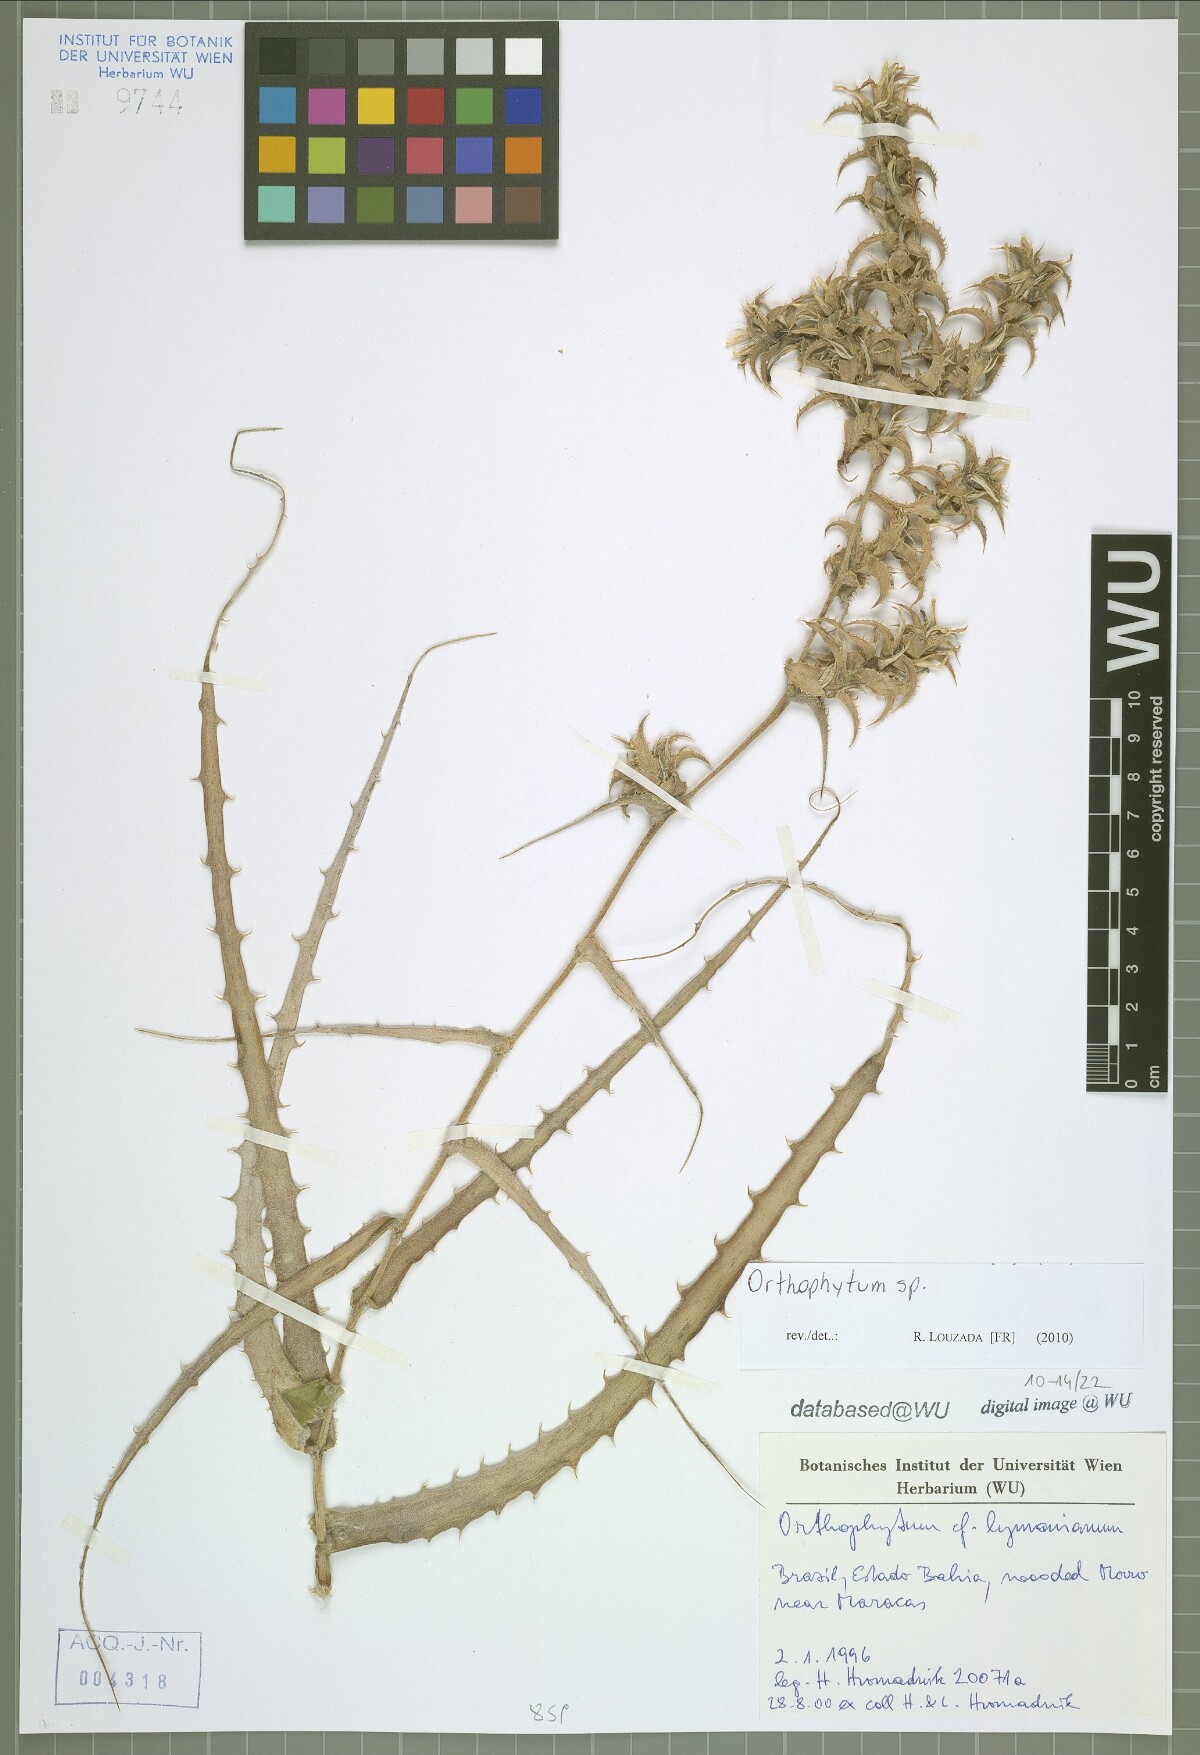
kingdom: Plantae
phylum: Tracheophyta
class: Liliopsida
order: Poales
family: Bromeliaceae
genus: Orthophytum
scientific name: Orthophytum
